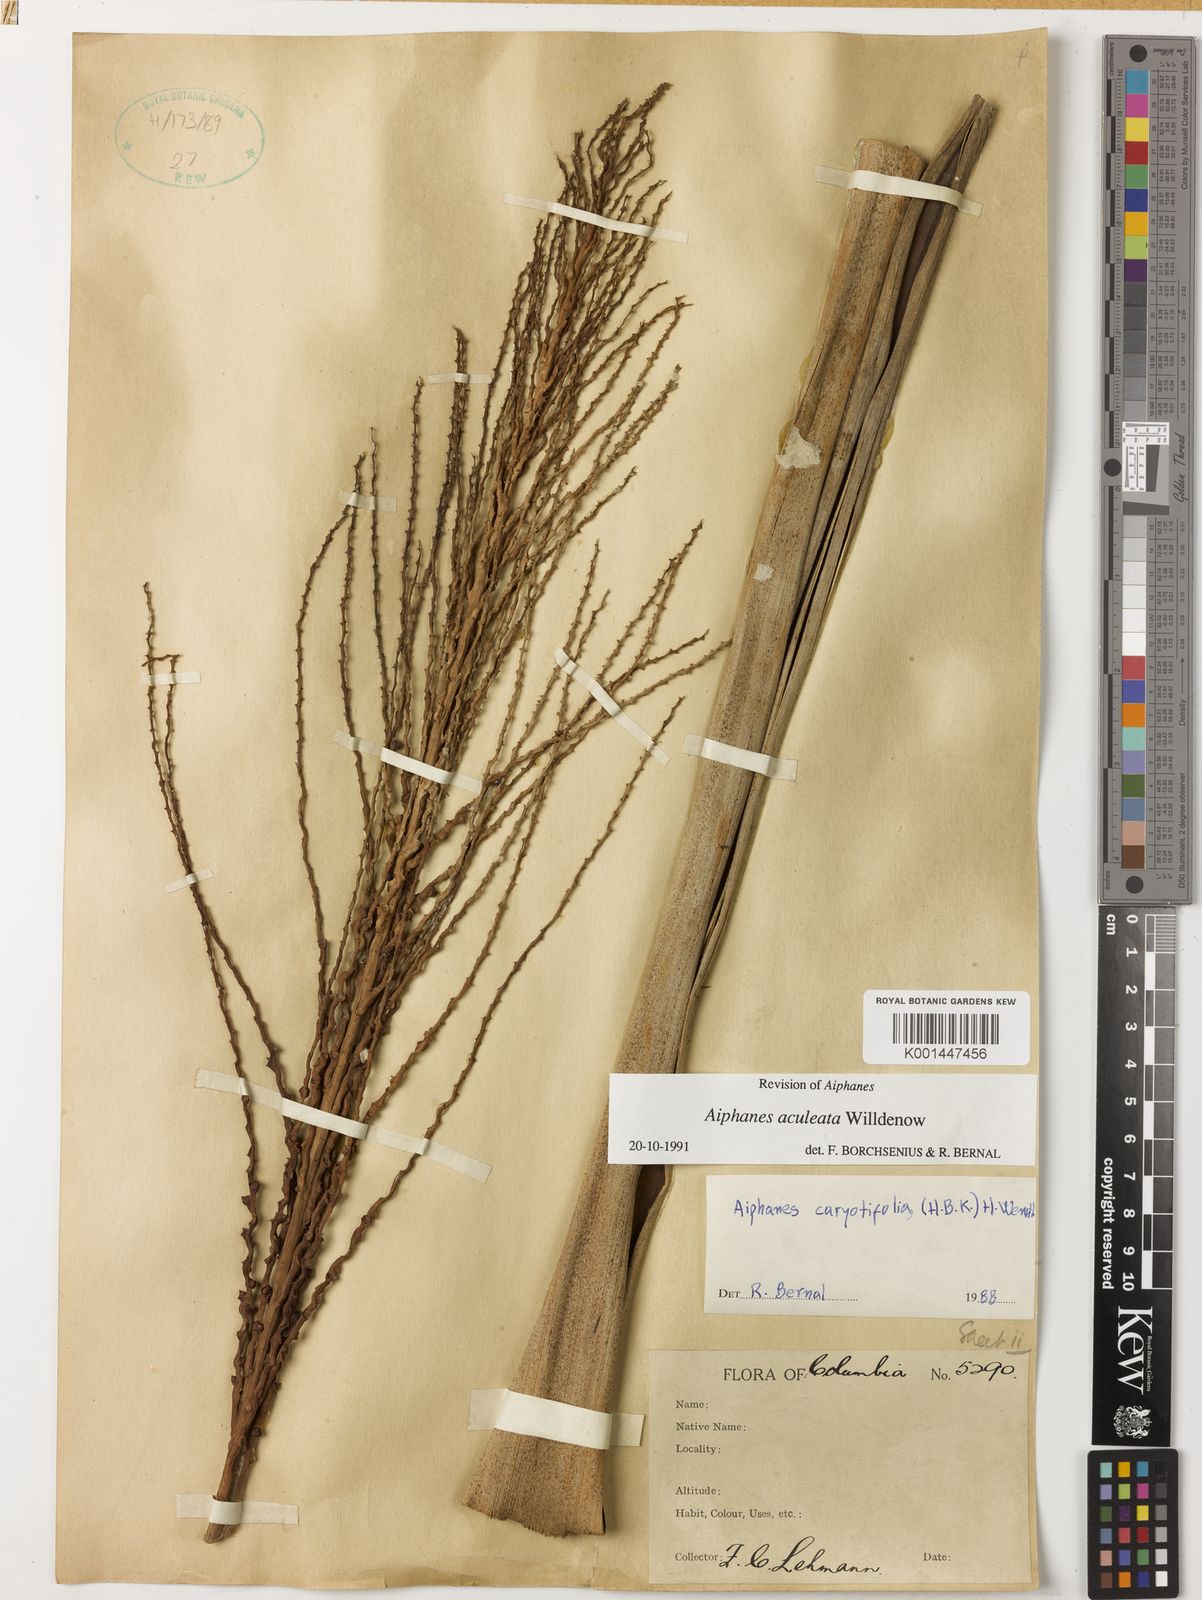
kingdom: Plantae
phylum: Tracheophyta
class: Liliopsida
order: Arecales
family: Arecaceae
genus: Aiphanes
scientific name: Aiphanes horrida
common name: Ruffle palm
